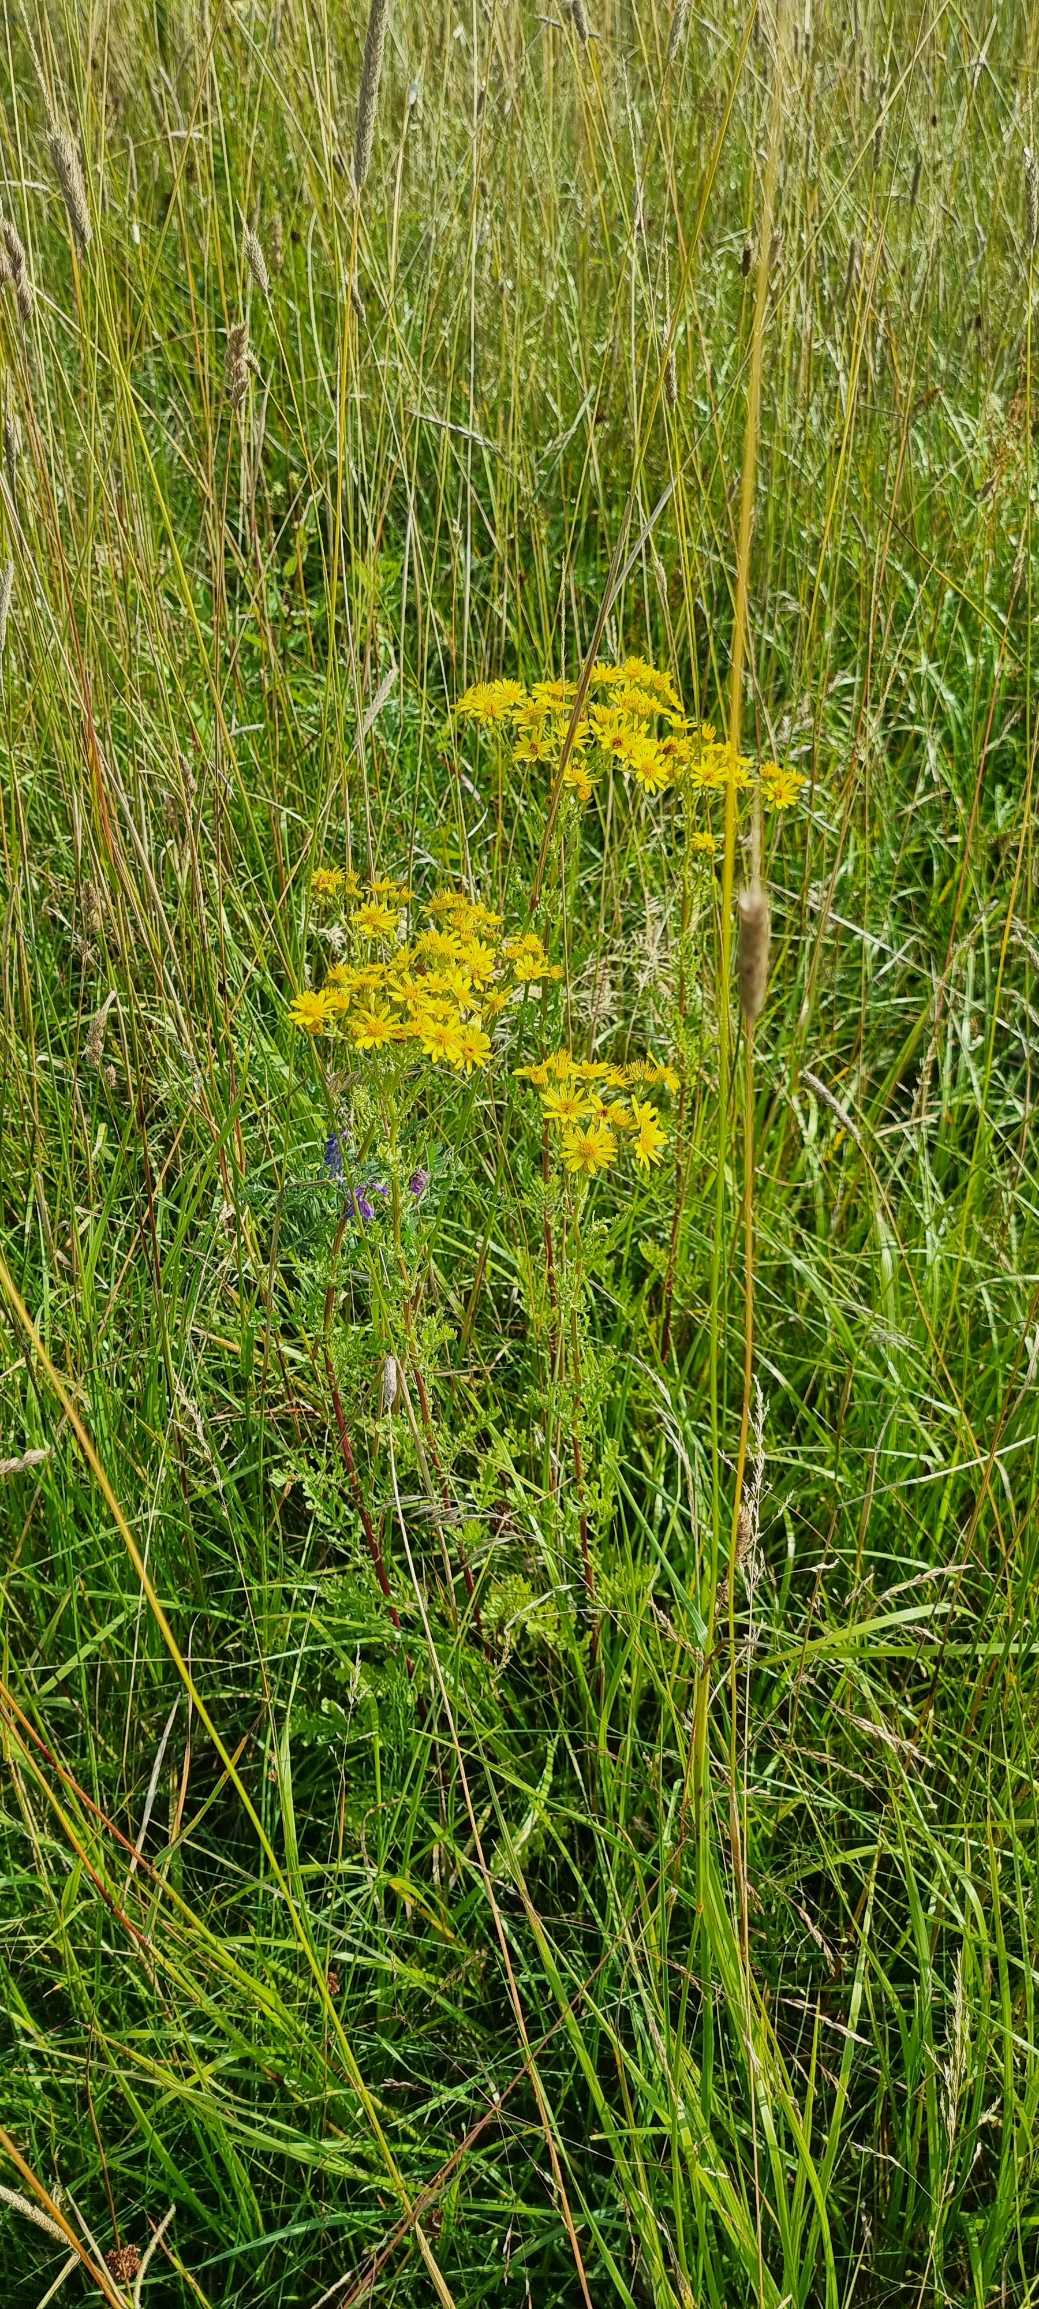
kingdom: Plantae
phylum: Tracheophyta
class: Magnoliopsida
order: Asterales
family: Asteraceae
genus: Jacobaea
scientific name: Jacobaea vulgaris
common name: Eng-brandbæger
